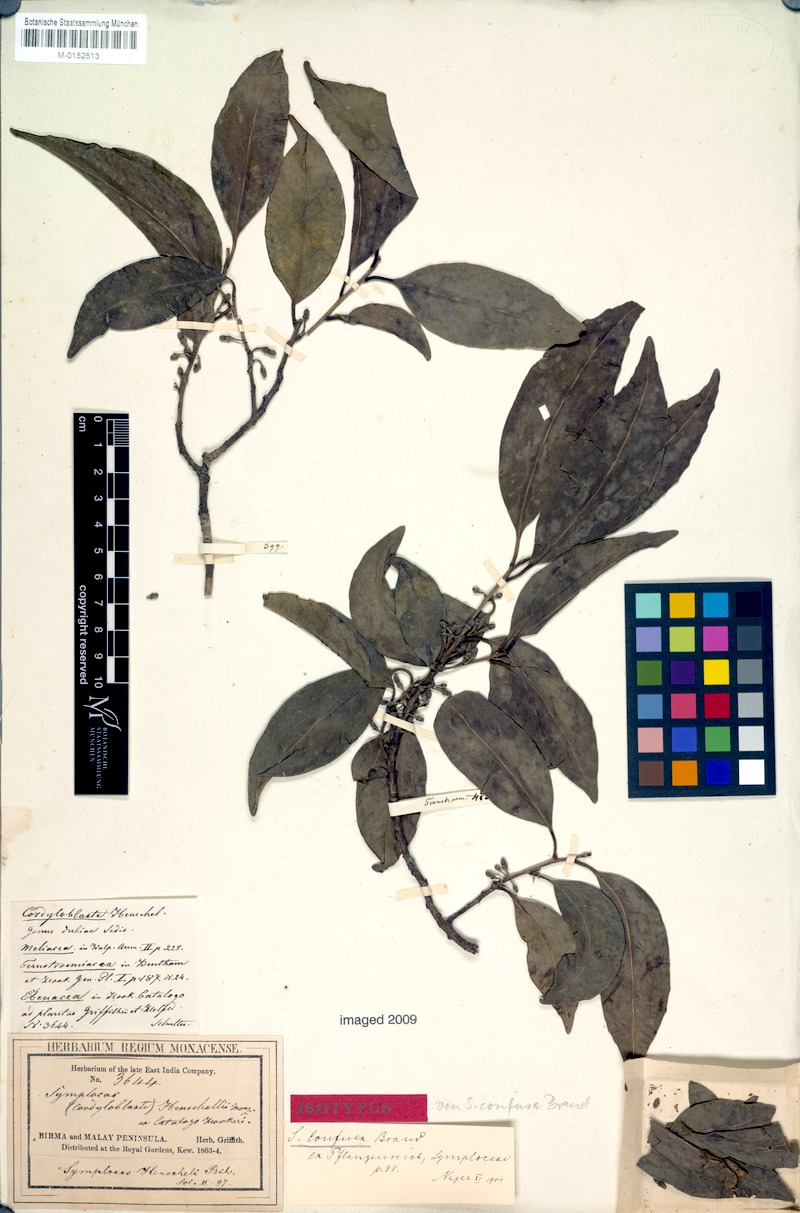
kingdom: Plantae
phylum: Tracheophyta
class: Magnoliopsida
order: Ericales
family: Symplocaceae
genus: Symplocos
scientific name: Symplocos pendula
